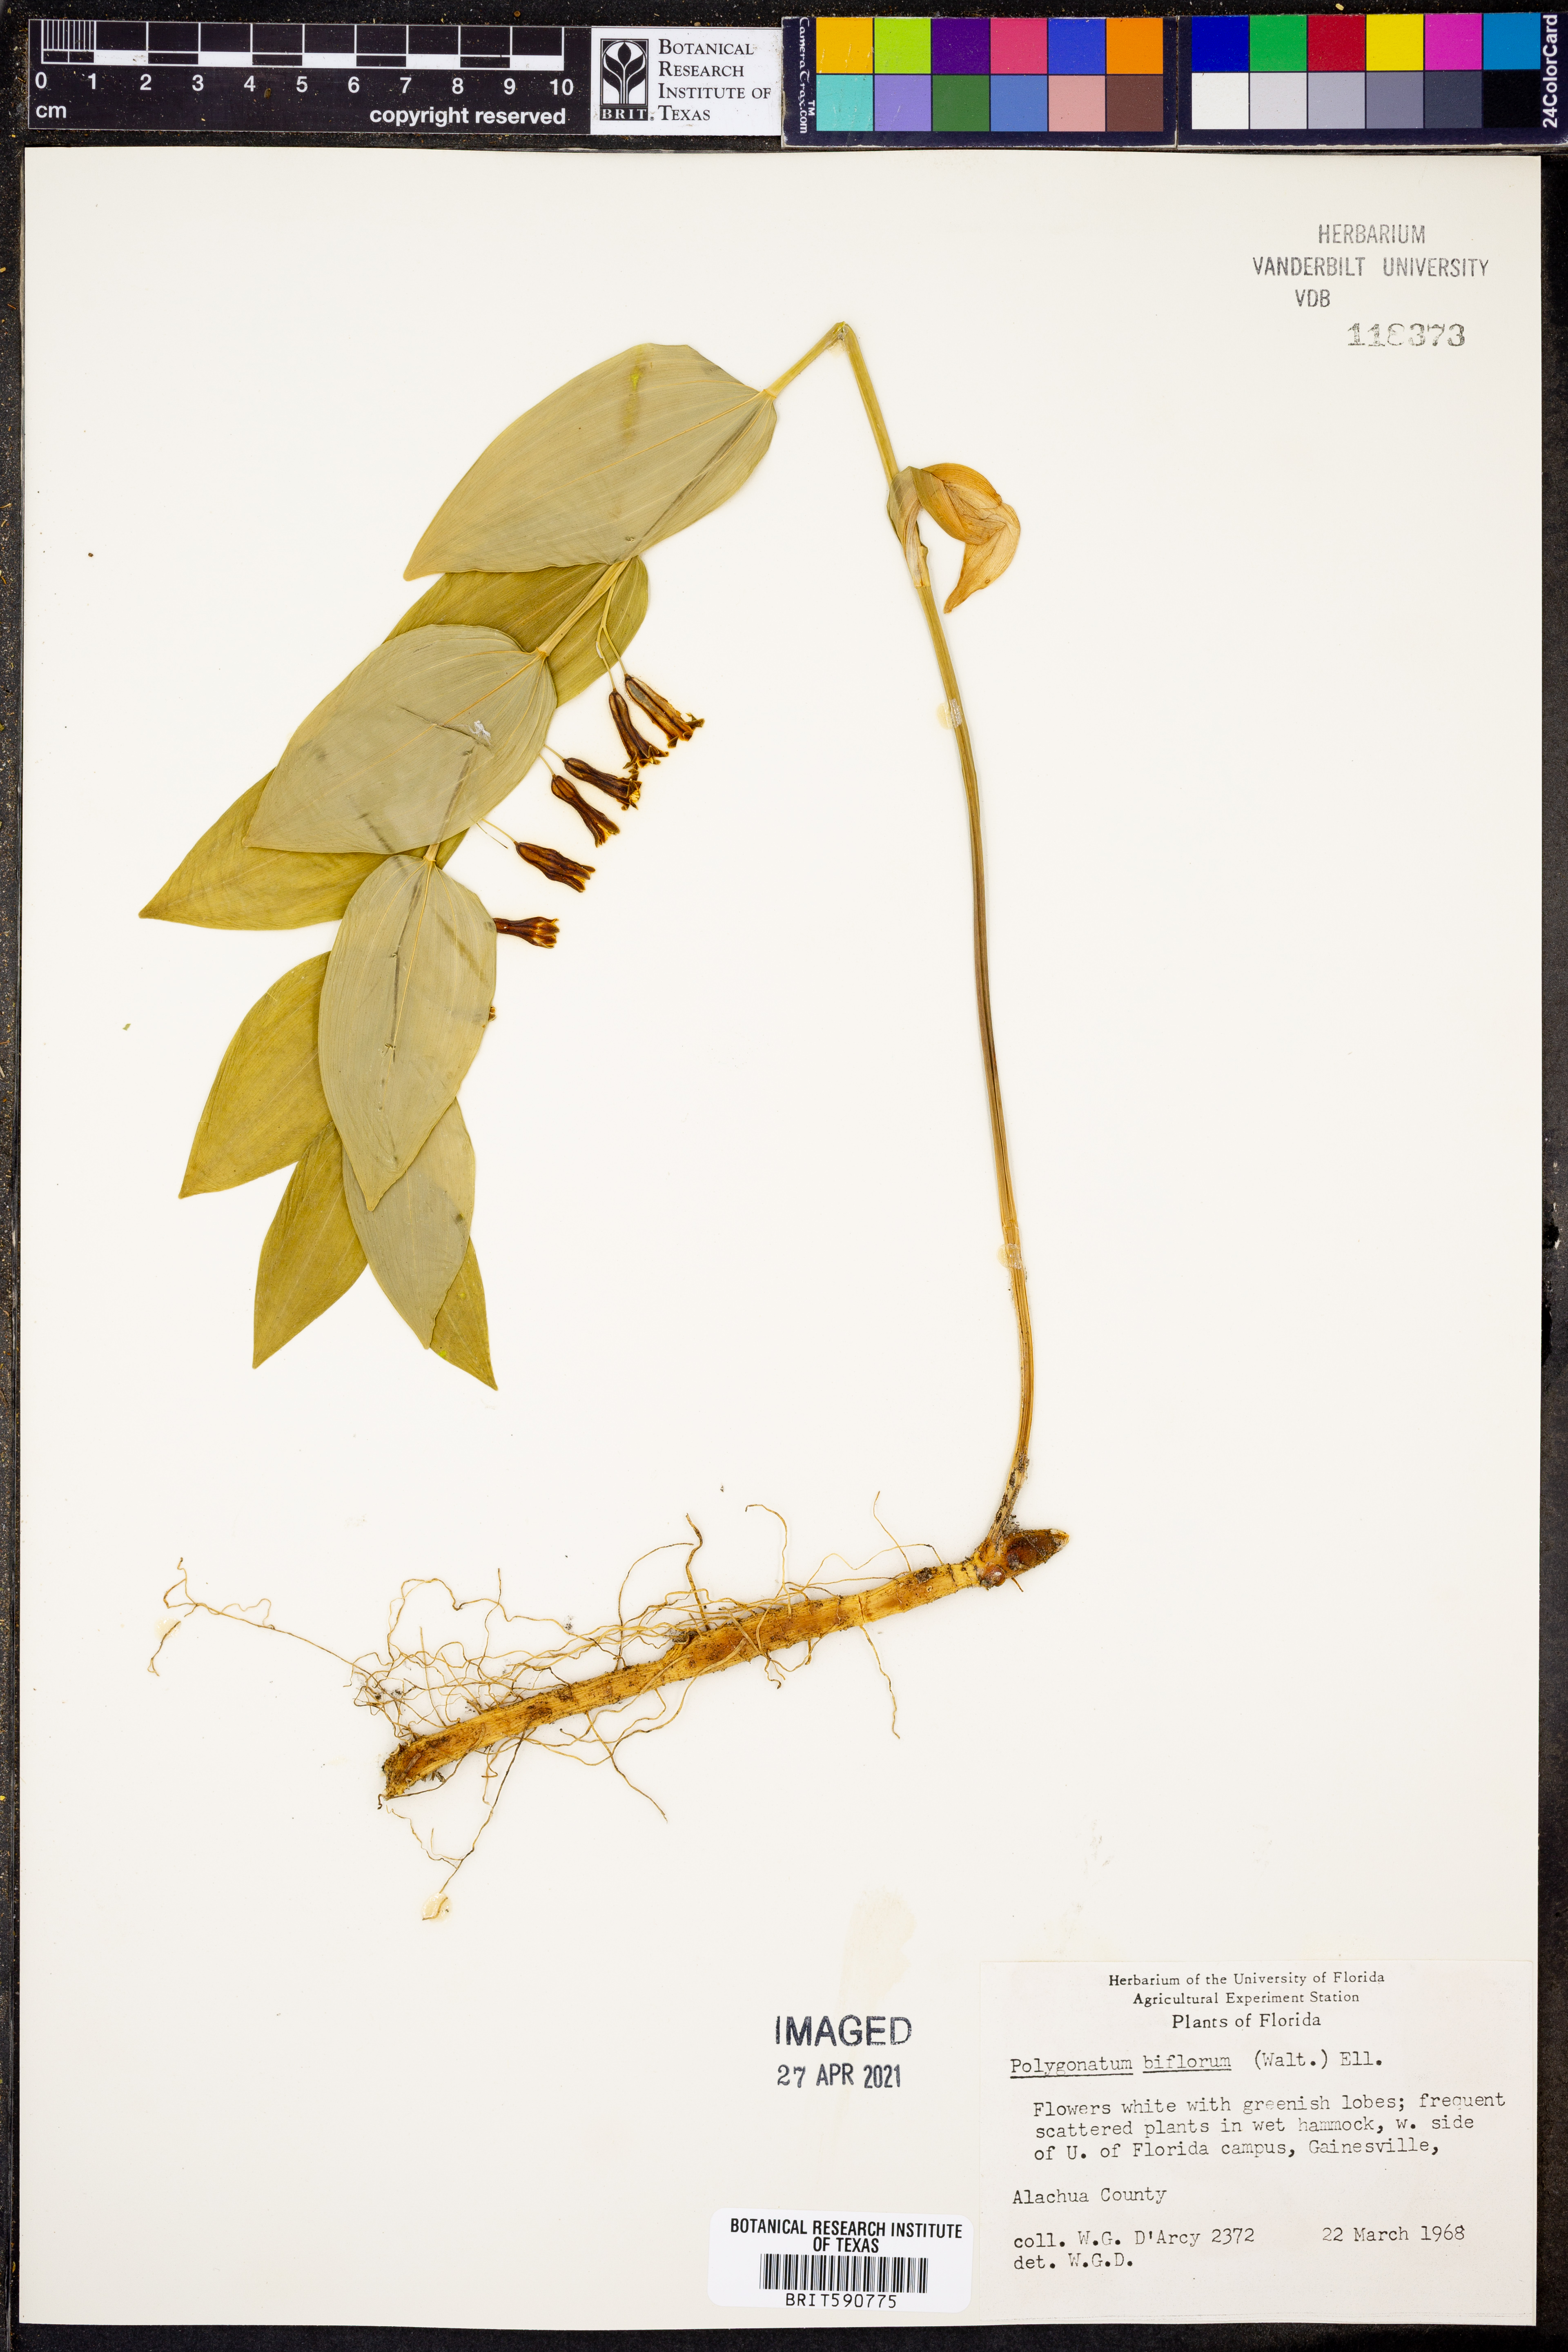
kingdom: Plantae
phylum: Tracheophyta
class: Liliopsida
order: Asparagales
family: Asparagaceae
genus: Polygonatum
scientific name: Polygonatum biflorum
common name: American solomon's-seal
